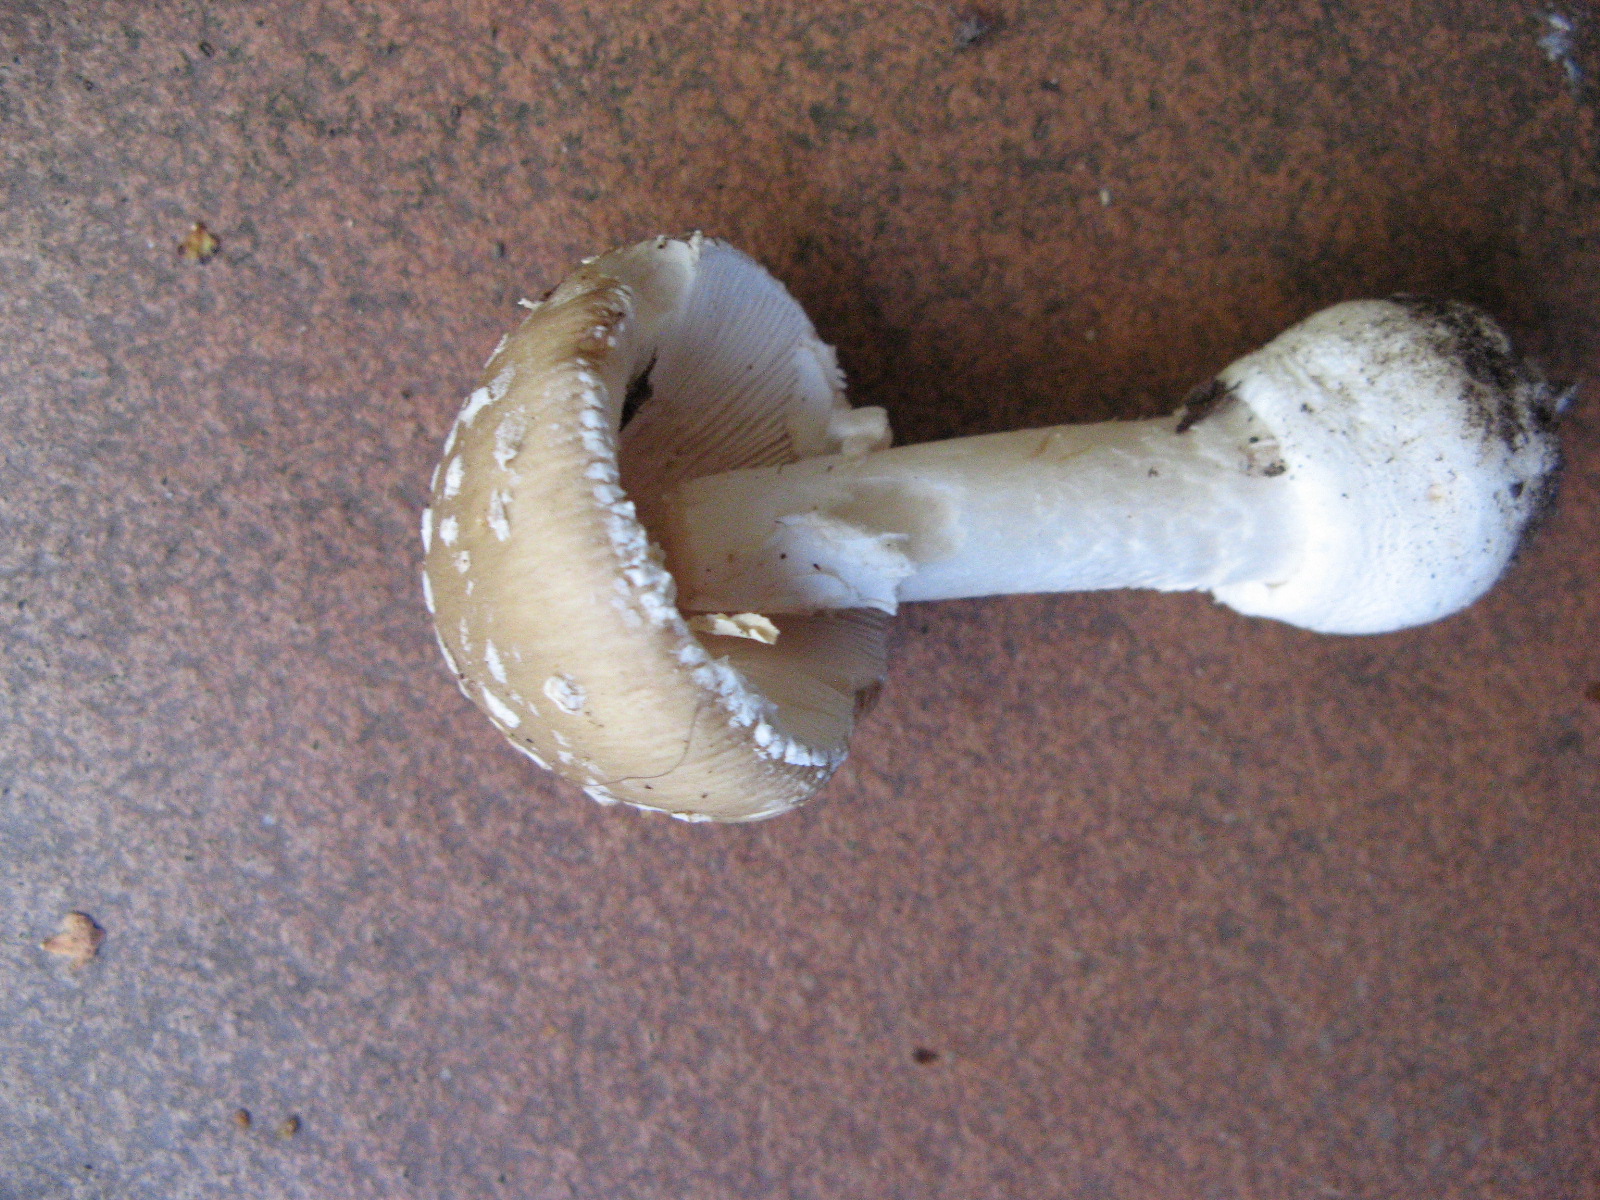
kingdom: Fungi
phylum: Basidiomycota
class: Agaricomycetes
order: Agaricales
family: Amanitaceae
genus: Amanita
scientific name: Amanita pantherina
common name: panter-fluesvamp
